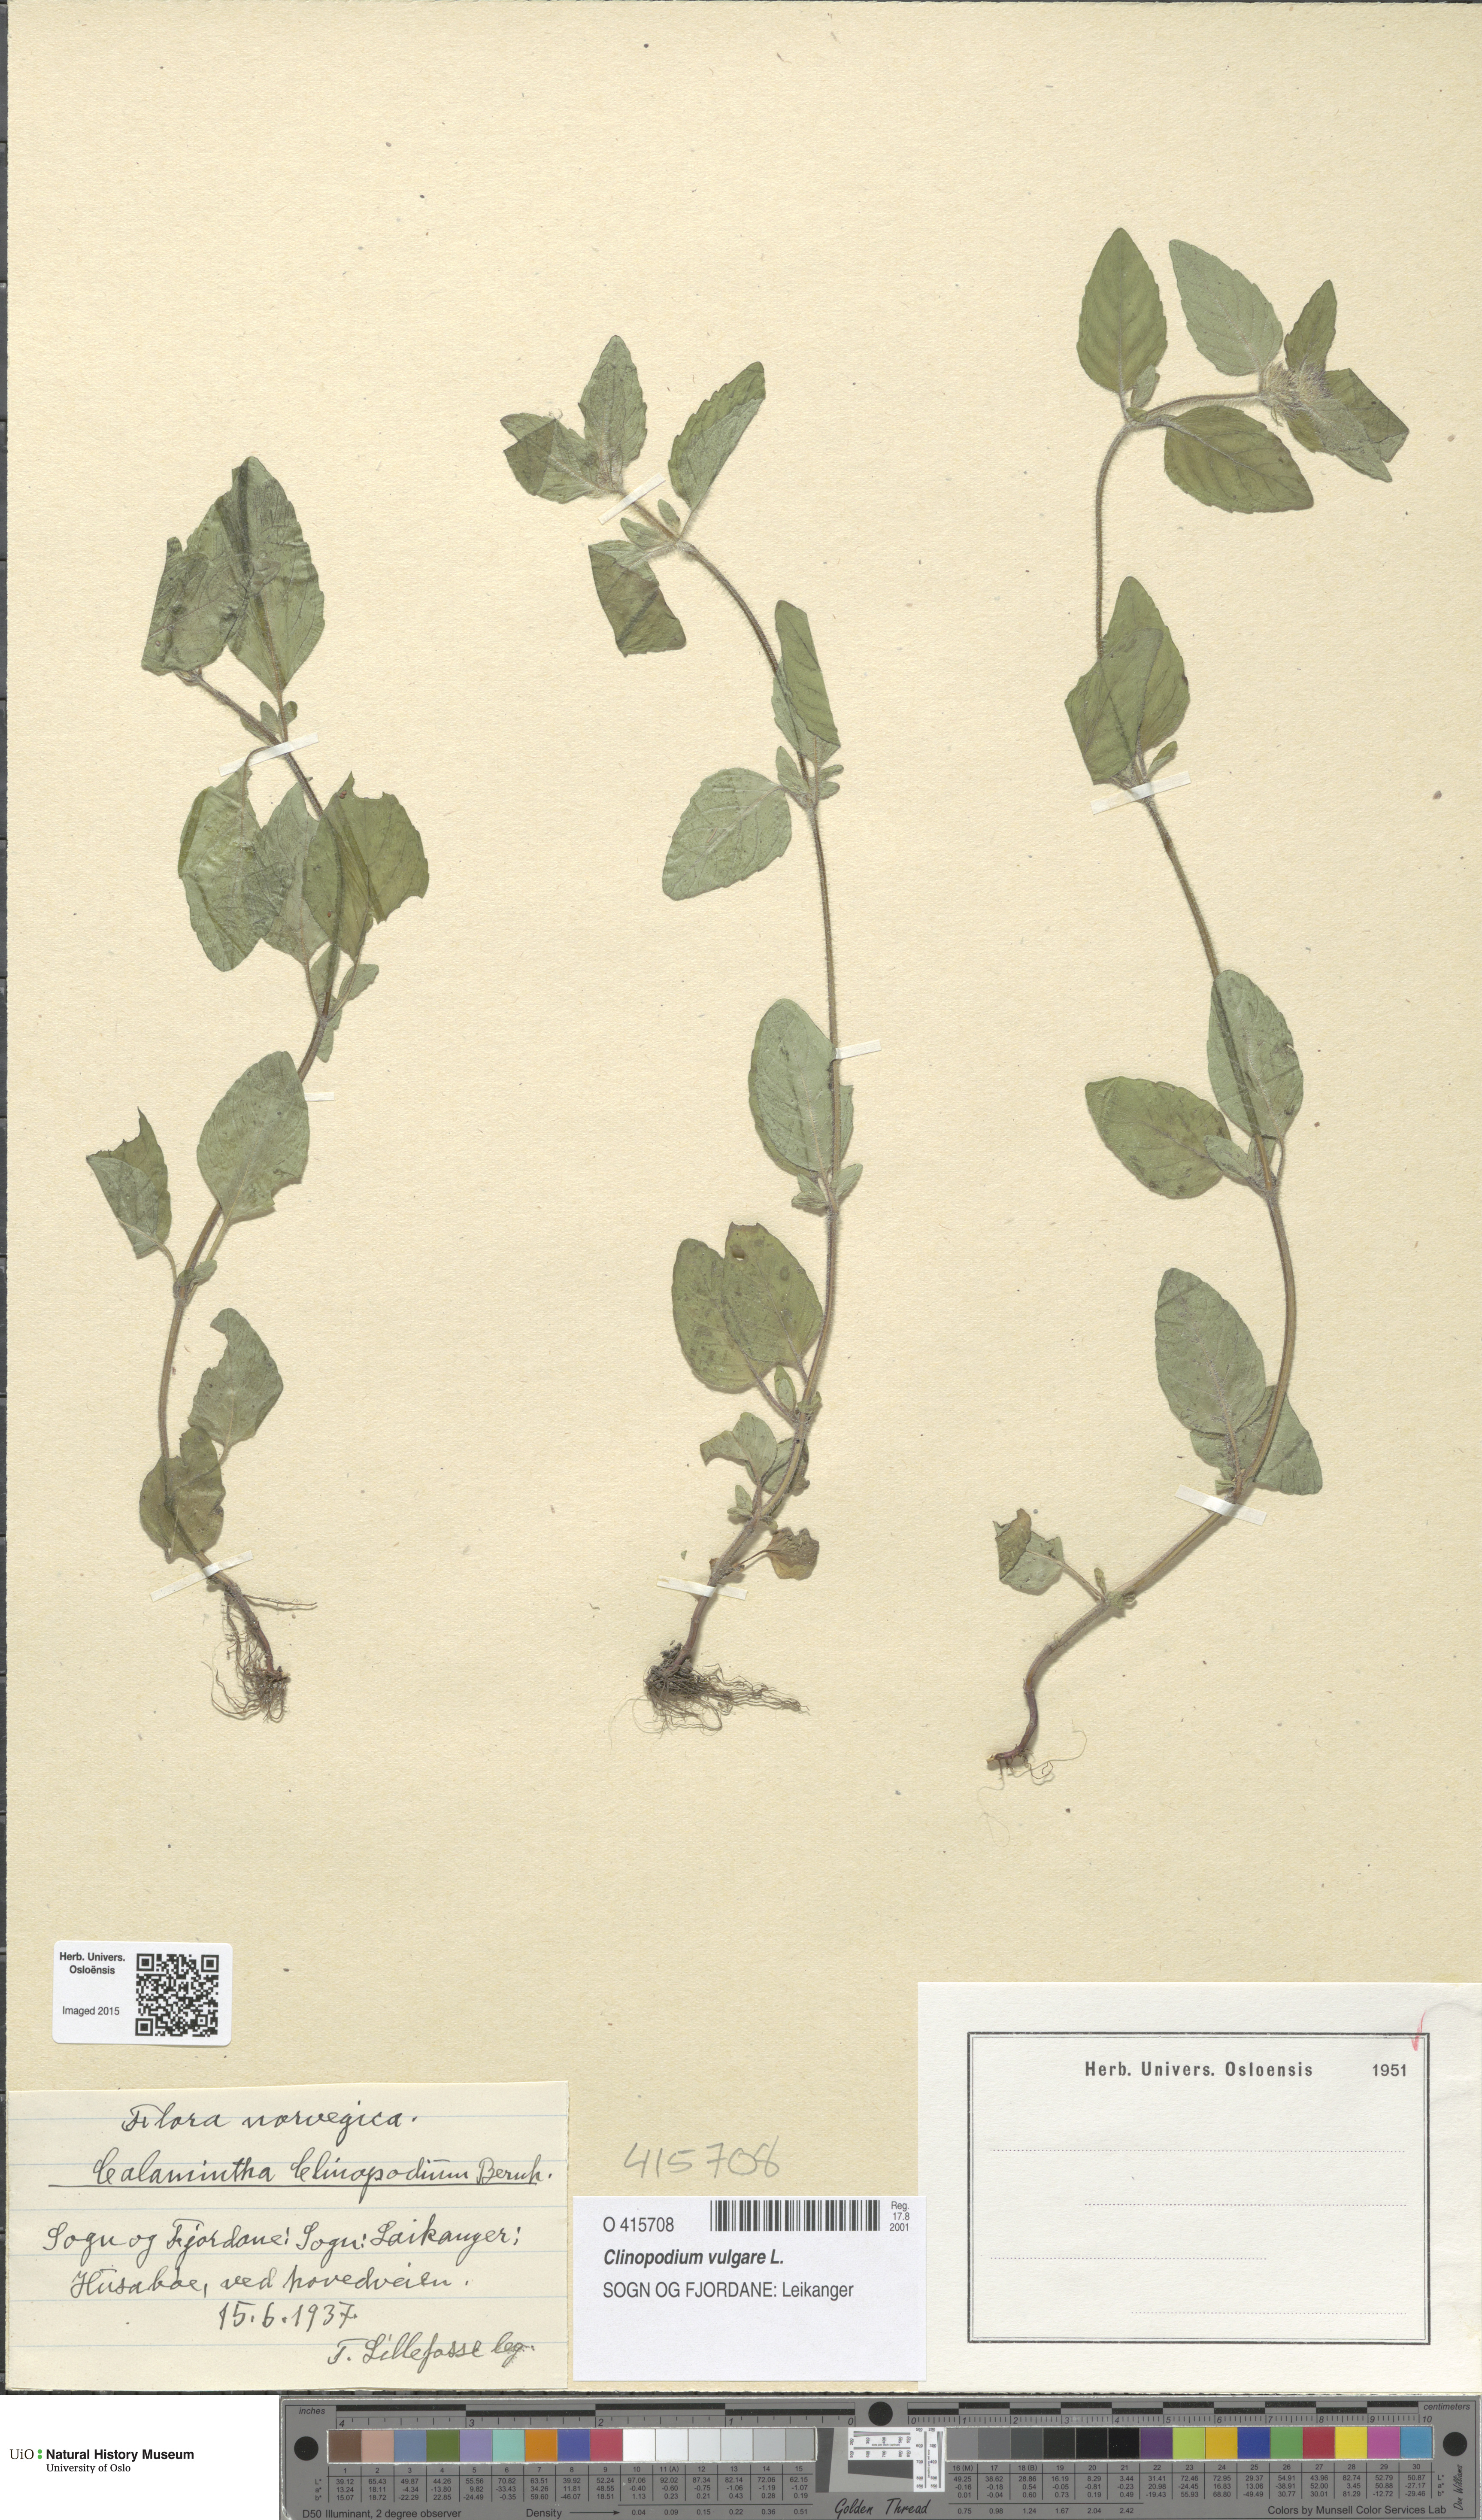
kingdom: Plantae
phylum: Tracheophyta
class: Magnoliopsida
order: Lamiales
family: Lamiaceae
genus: Clinopodium
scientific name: Clinopodium vulgare
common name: Wild basil
